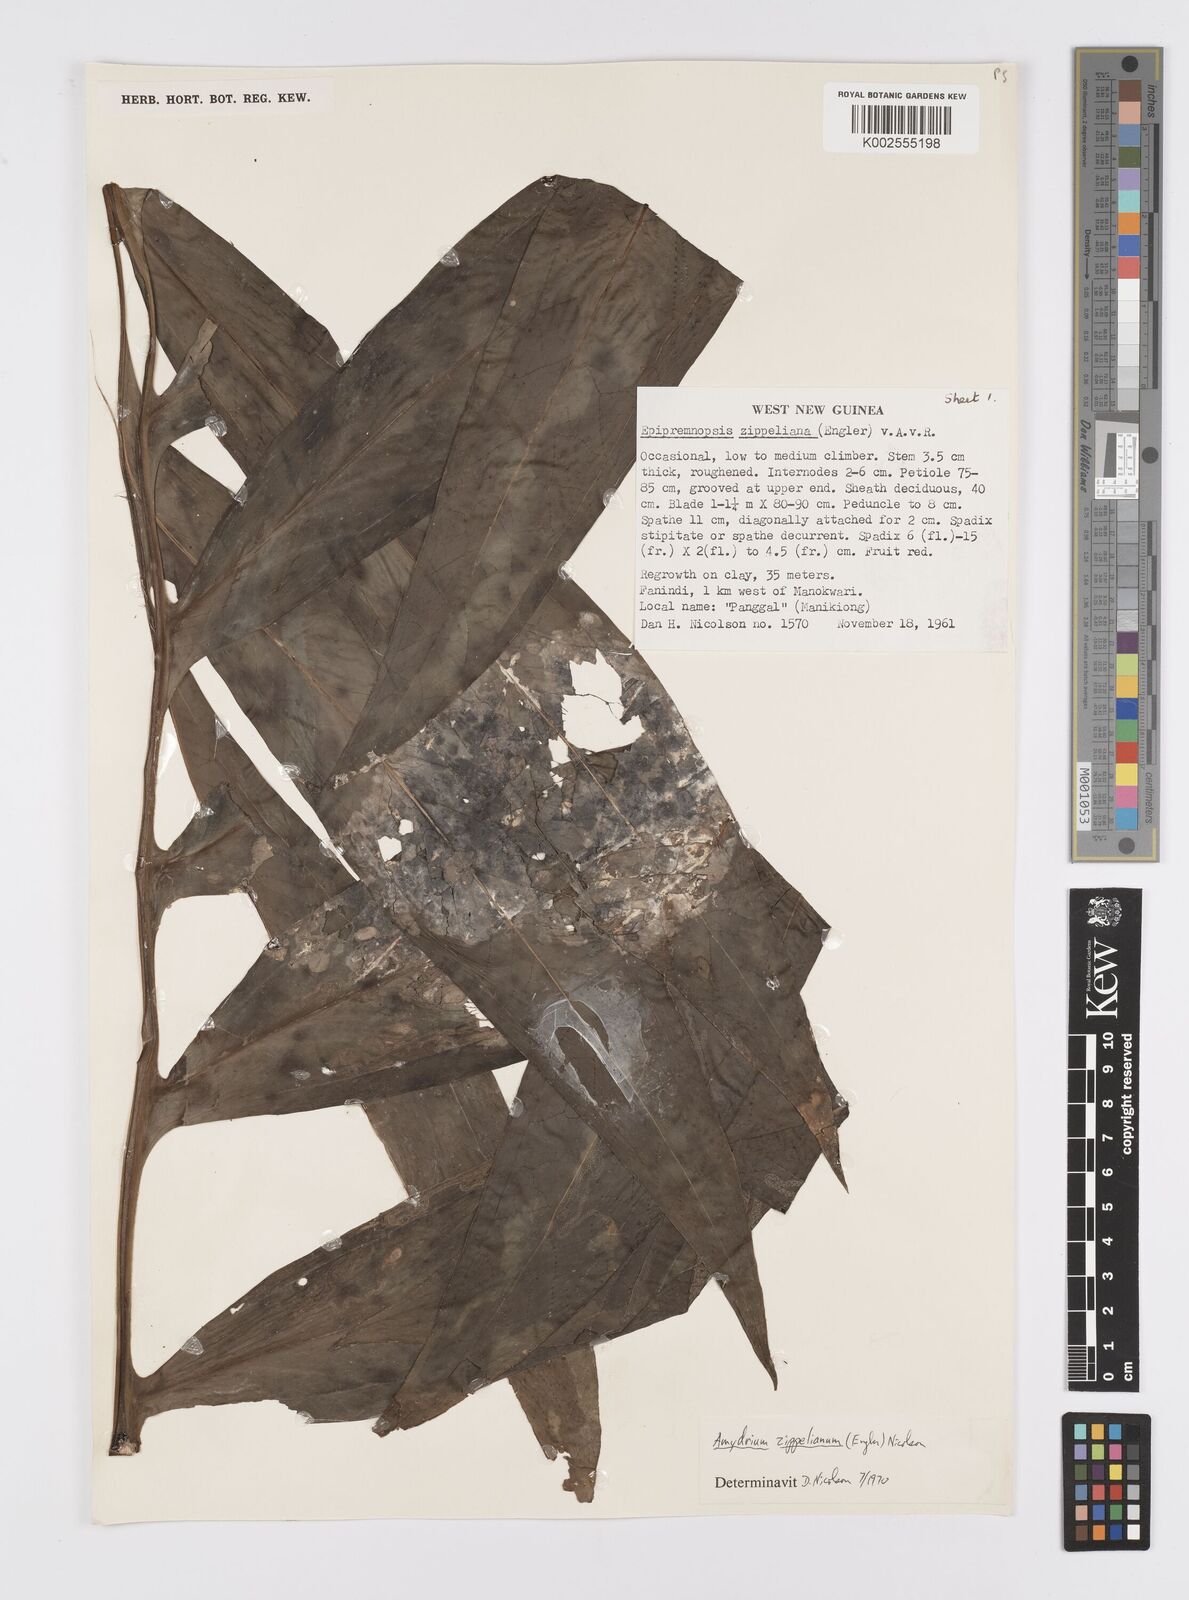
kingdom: Plantae
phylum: Tracheophyta
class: Liliopsida
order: Alismatales
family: Araceae
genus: Amydrium
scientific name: Amydrium zippelianum
